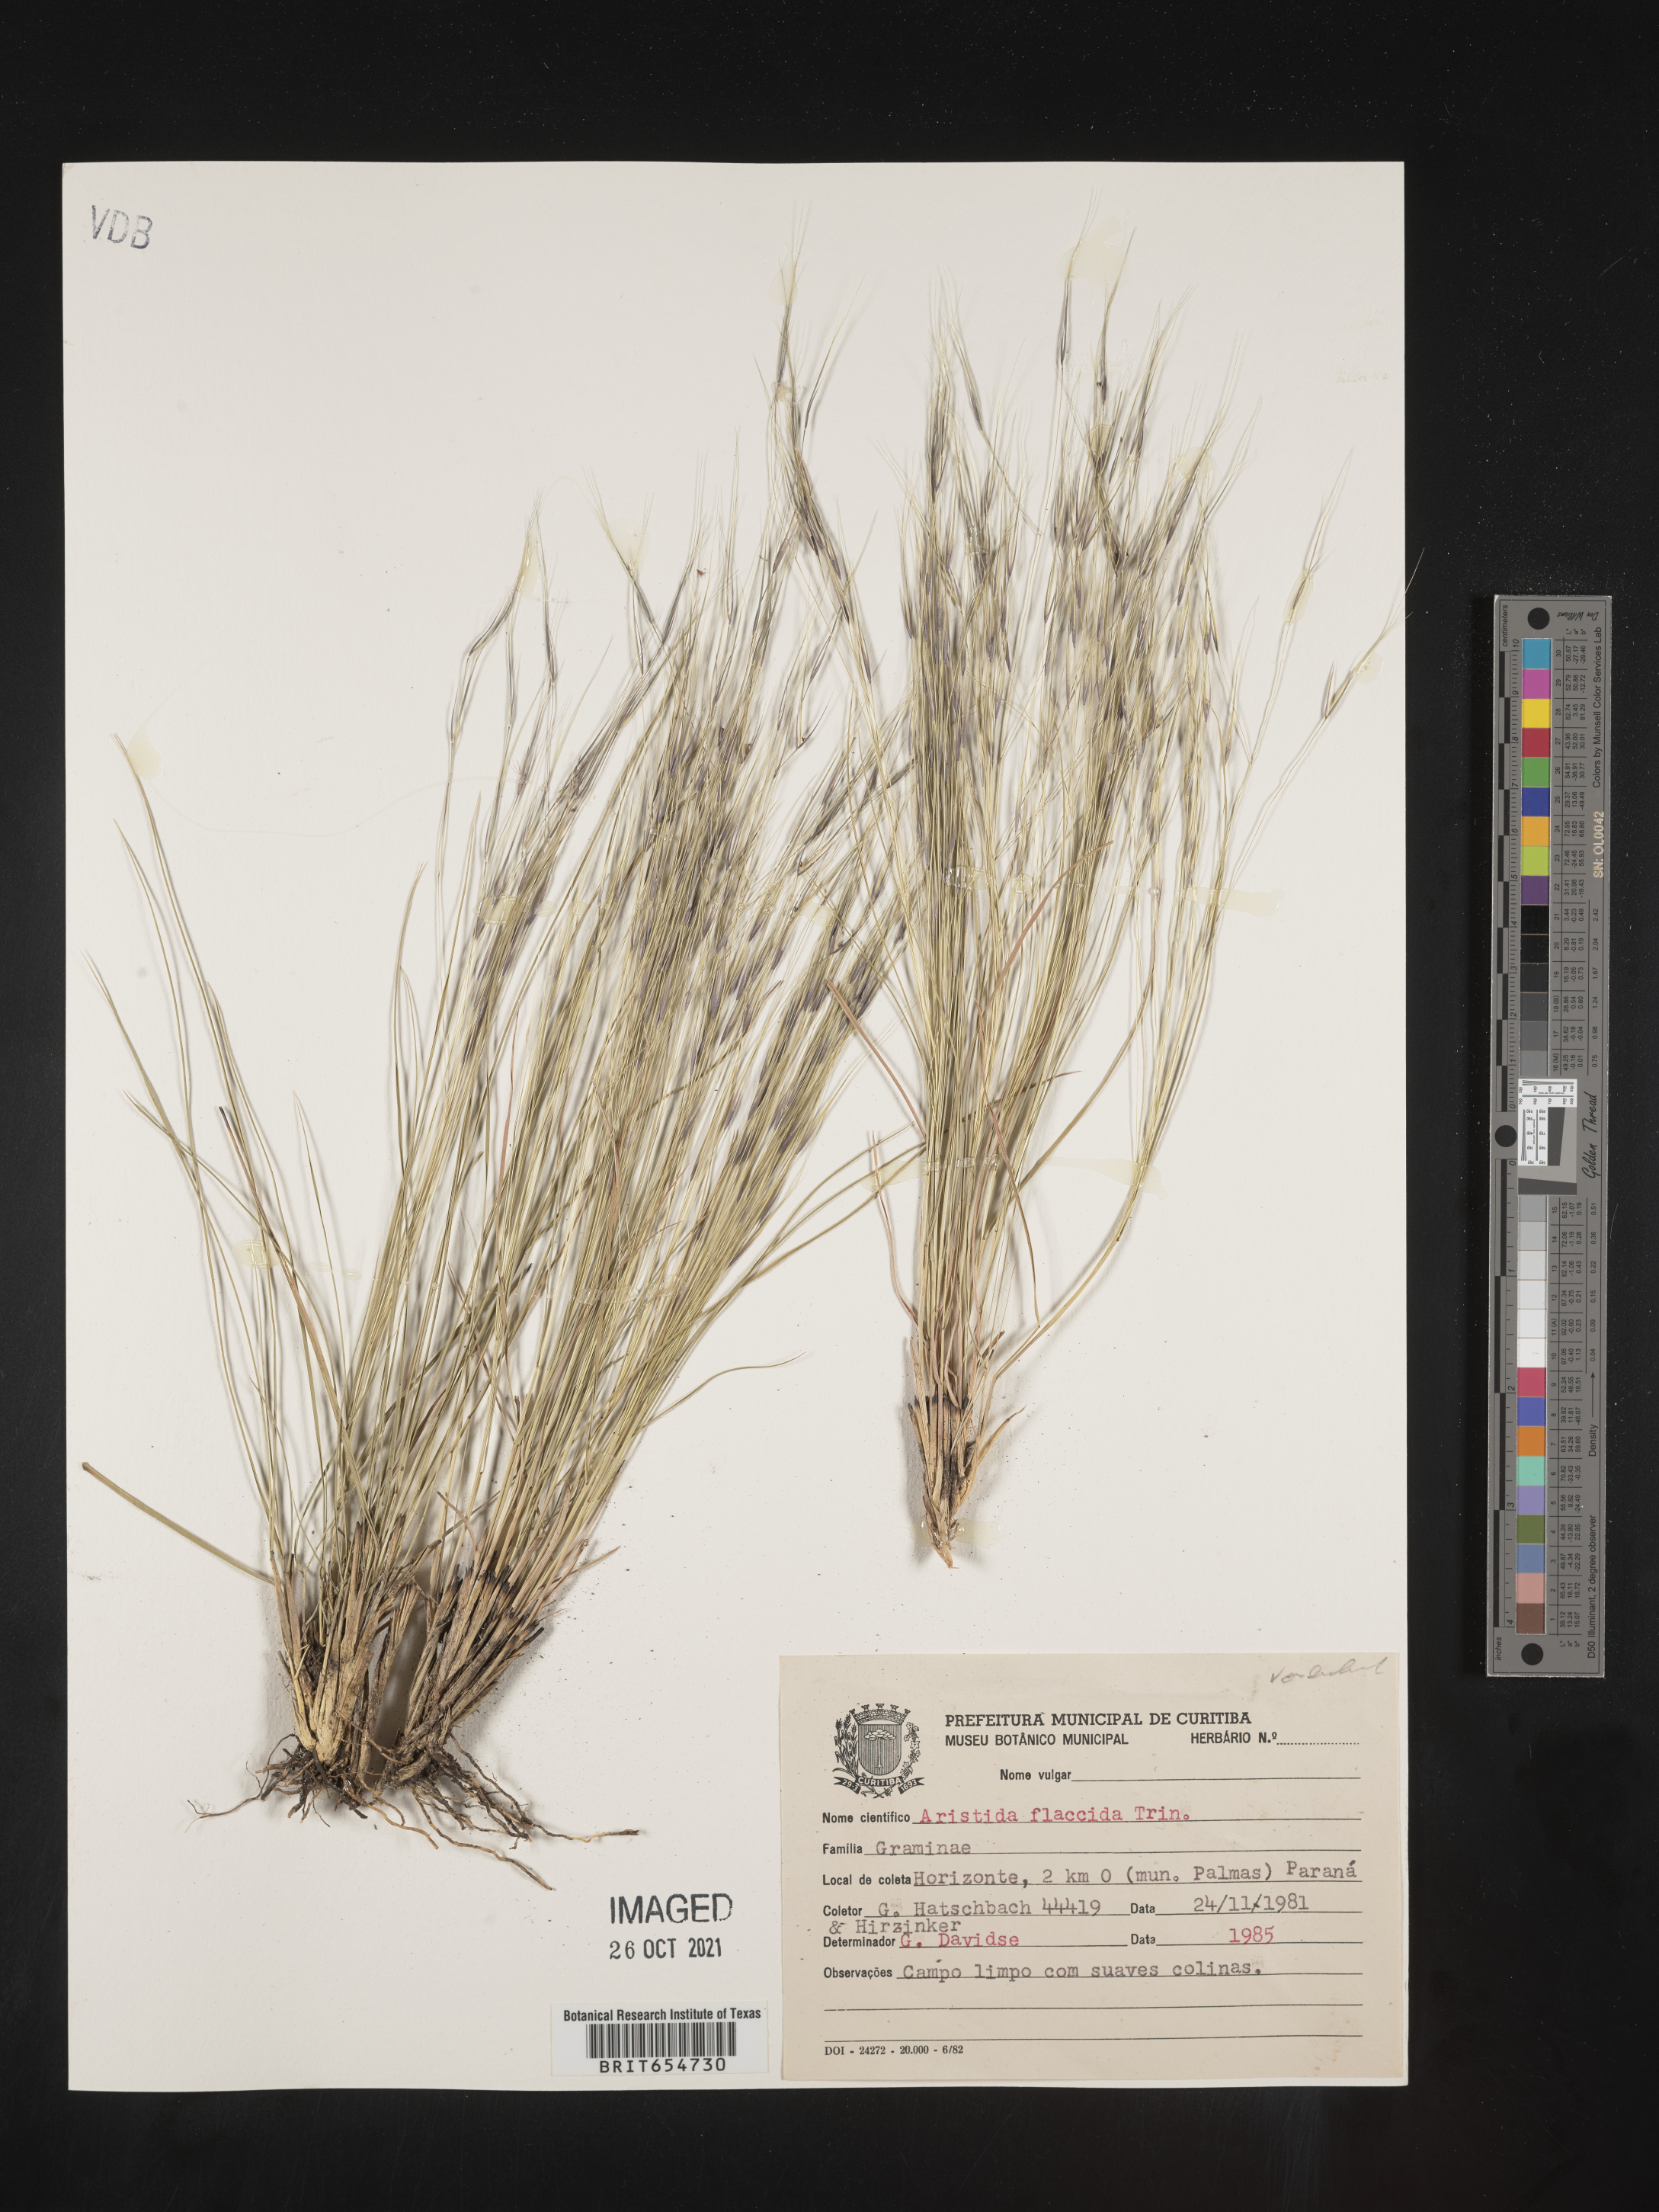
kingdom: Plantae
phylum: Tracheophyta
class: Liliopsida
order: Poales
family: Poaceae
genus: Aristida
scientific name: Aristida
